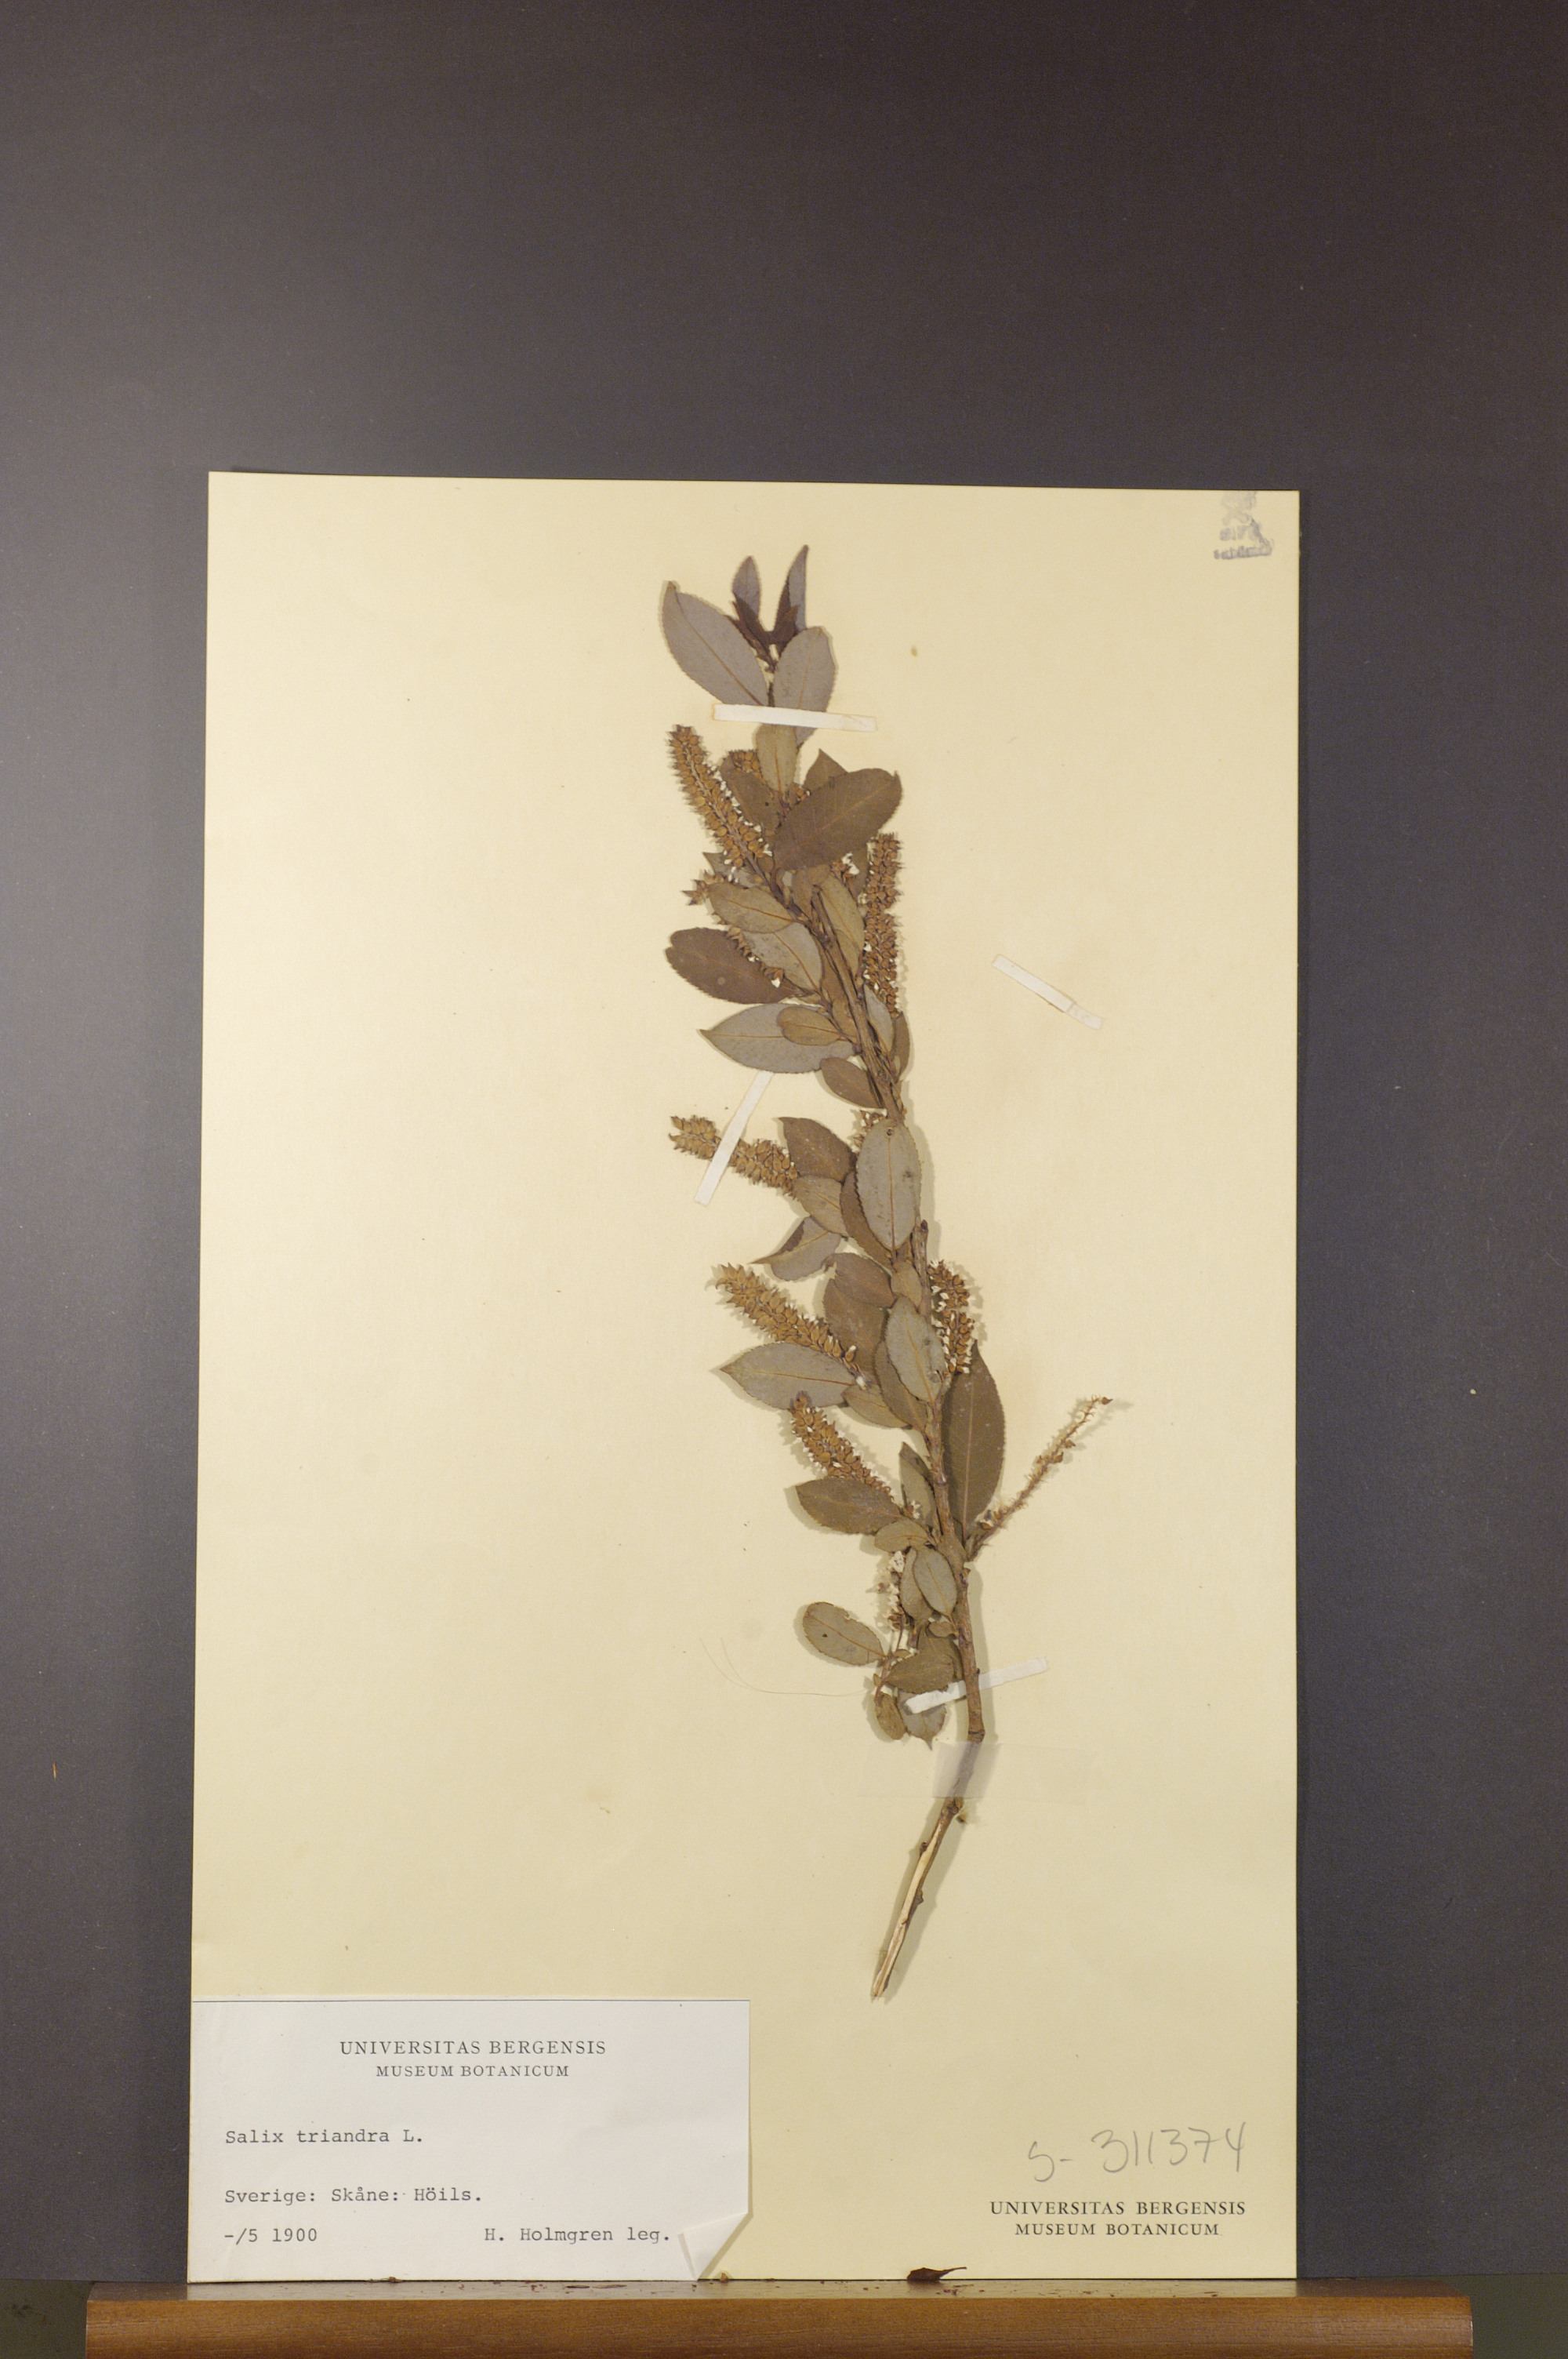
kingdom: Plantae
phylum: Tracheophyta
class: Magnoliopsida
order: Malpighiales
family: Salicaceae
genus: Salix
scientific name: Salix triandra
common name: Almond willow
